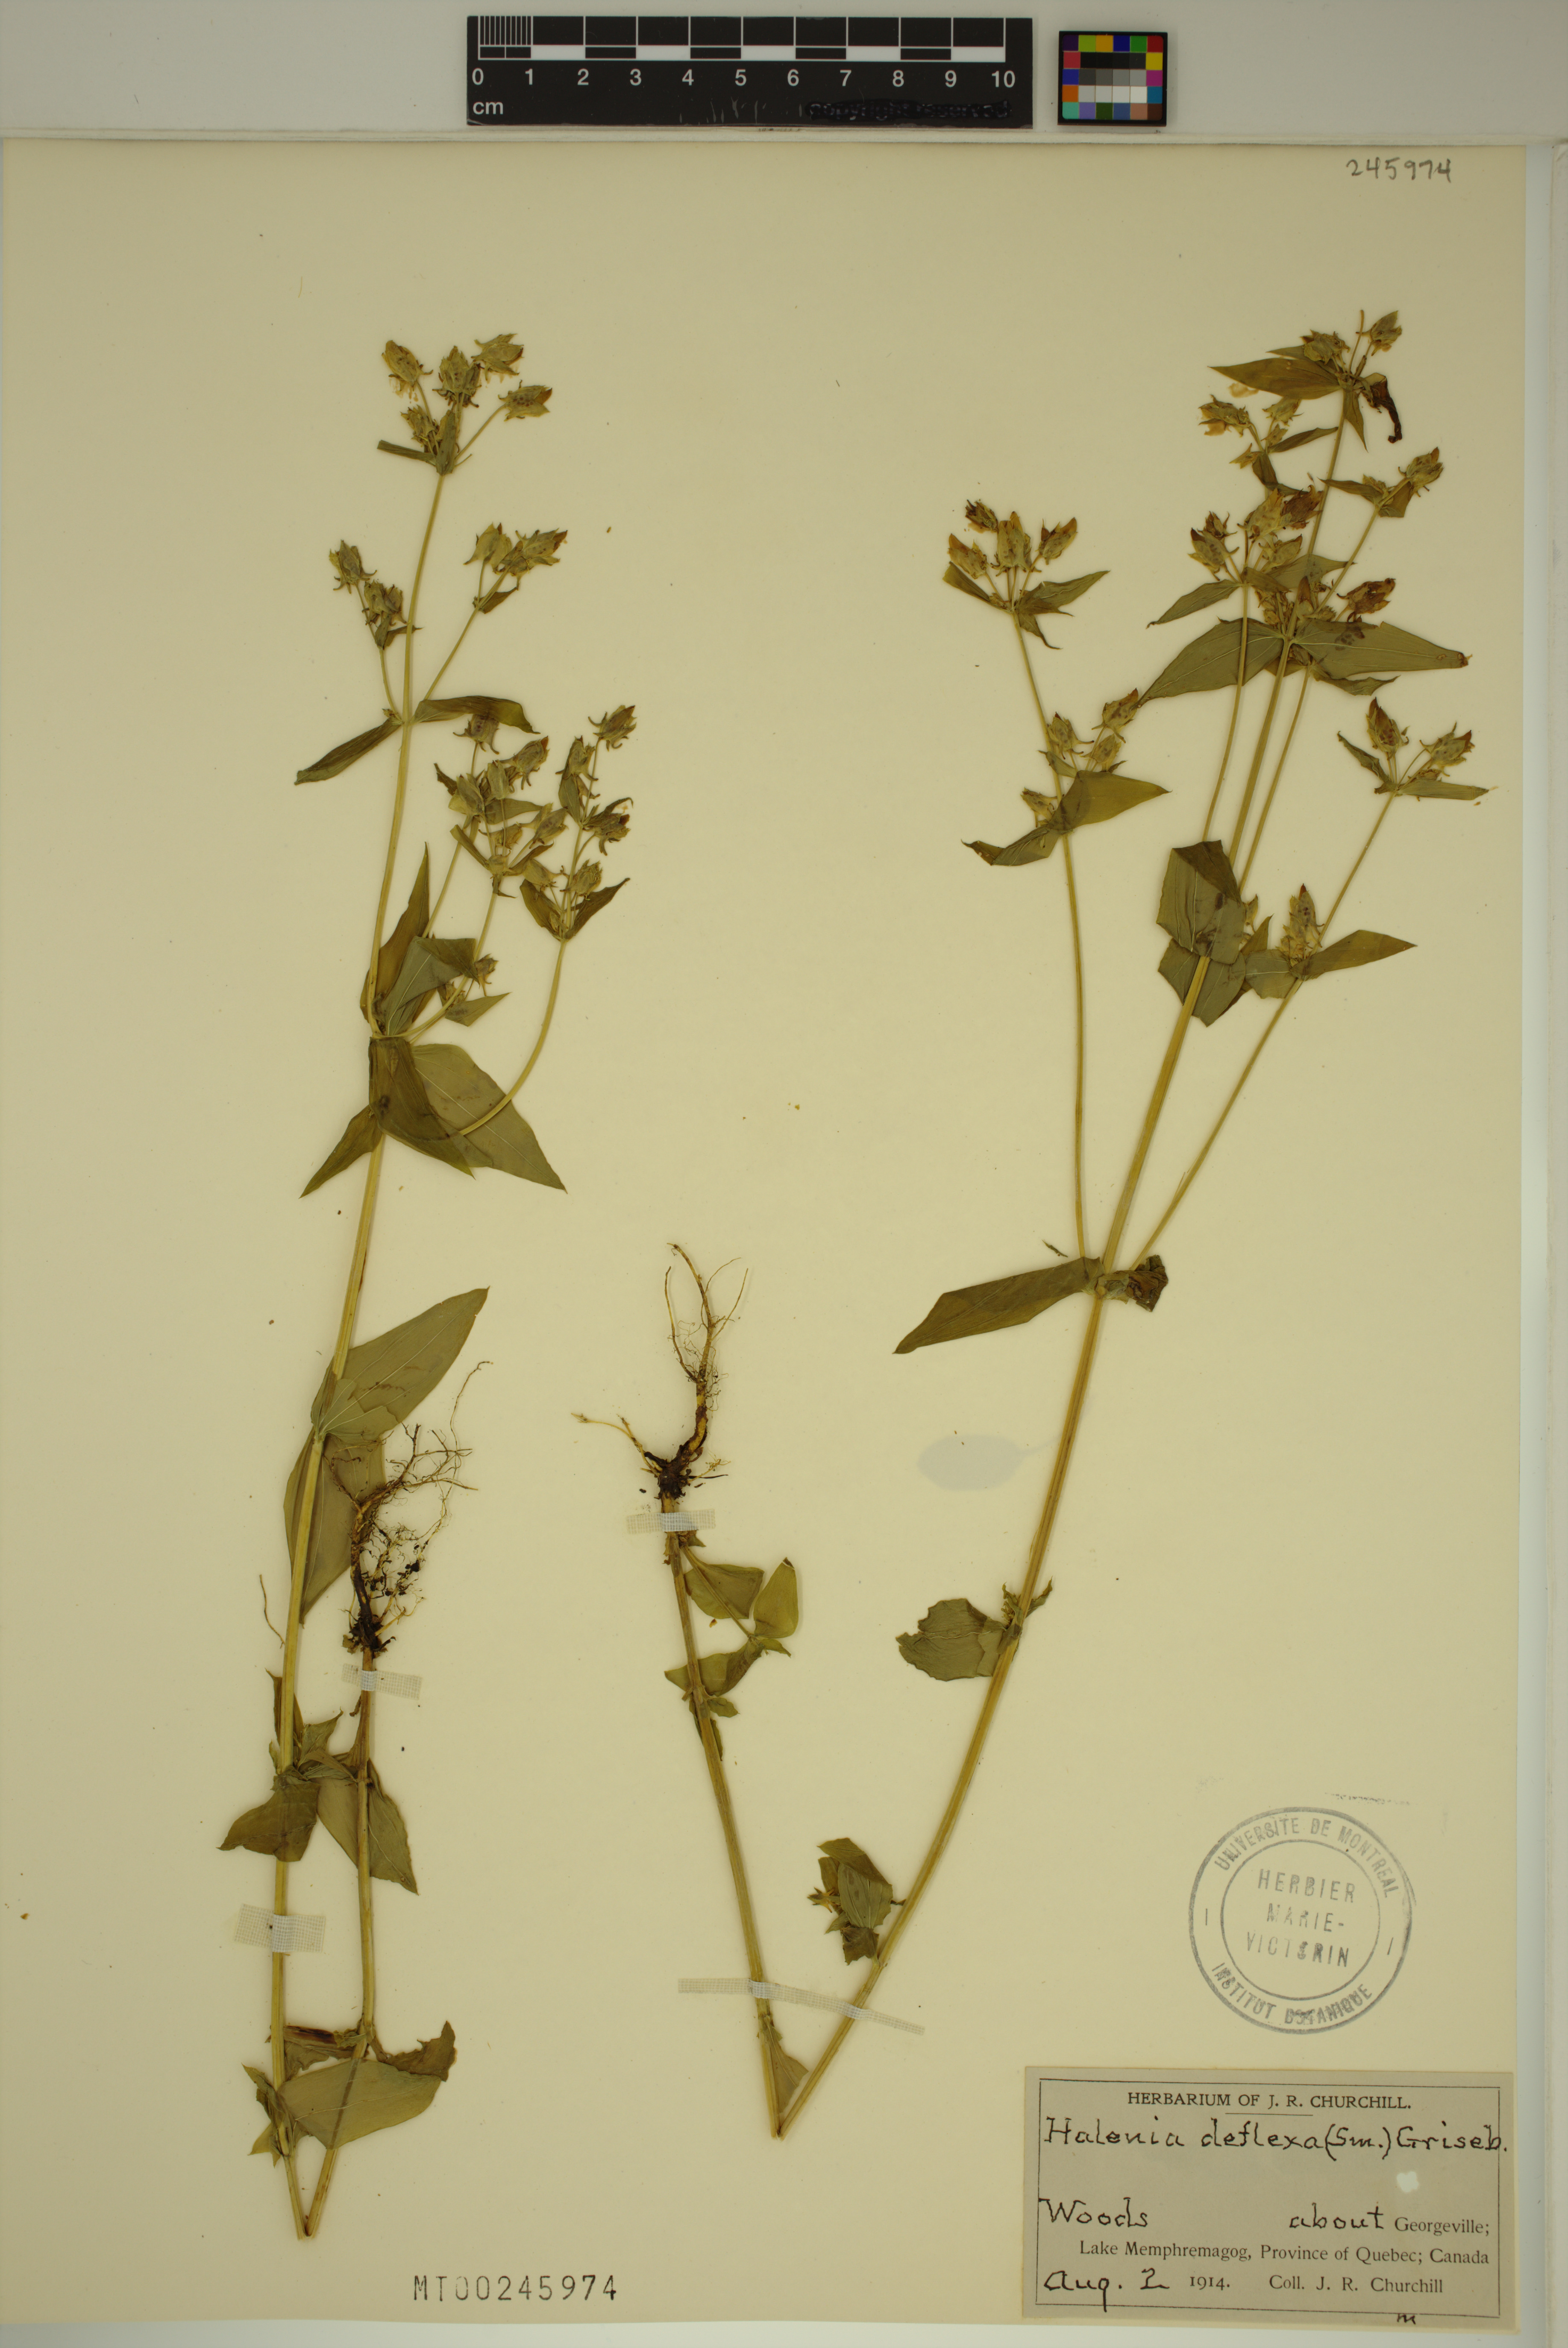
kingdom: Plantae
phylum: Tracheophyta
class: Magnoliopsida
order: Gentianales
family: Gentianaceae
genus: Halenia
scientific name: Halenia deflexa
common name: American spurred gentian
